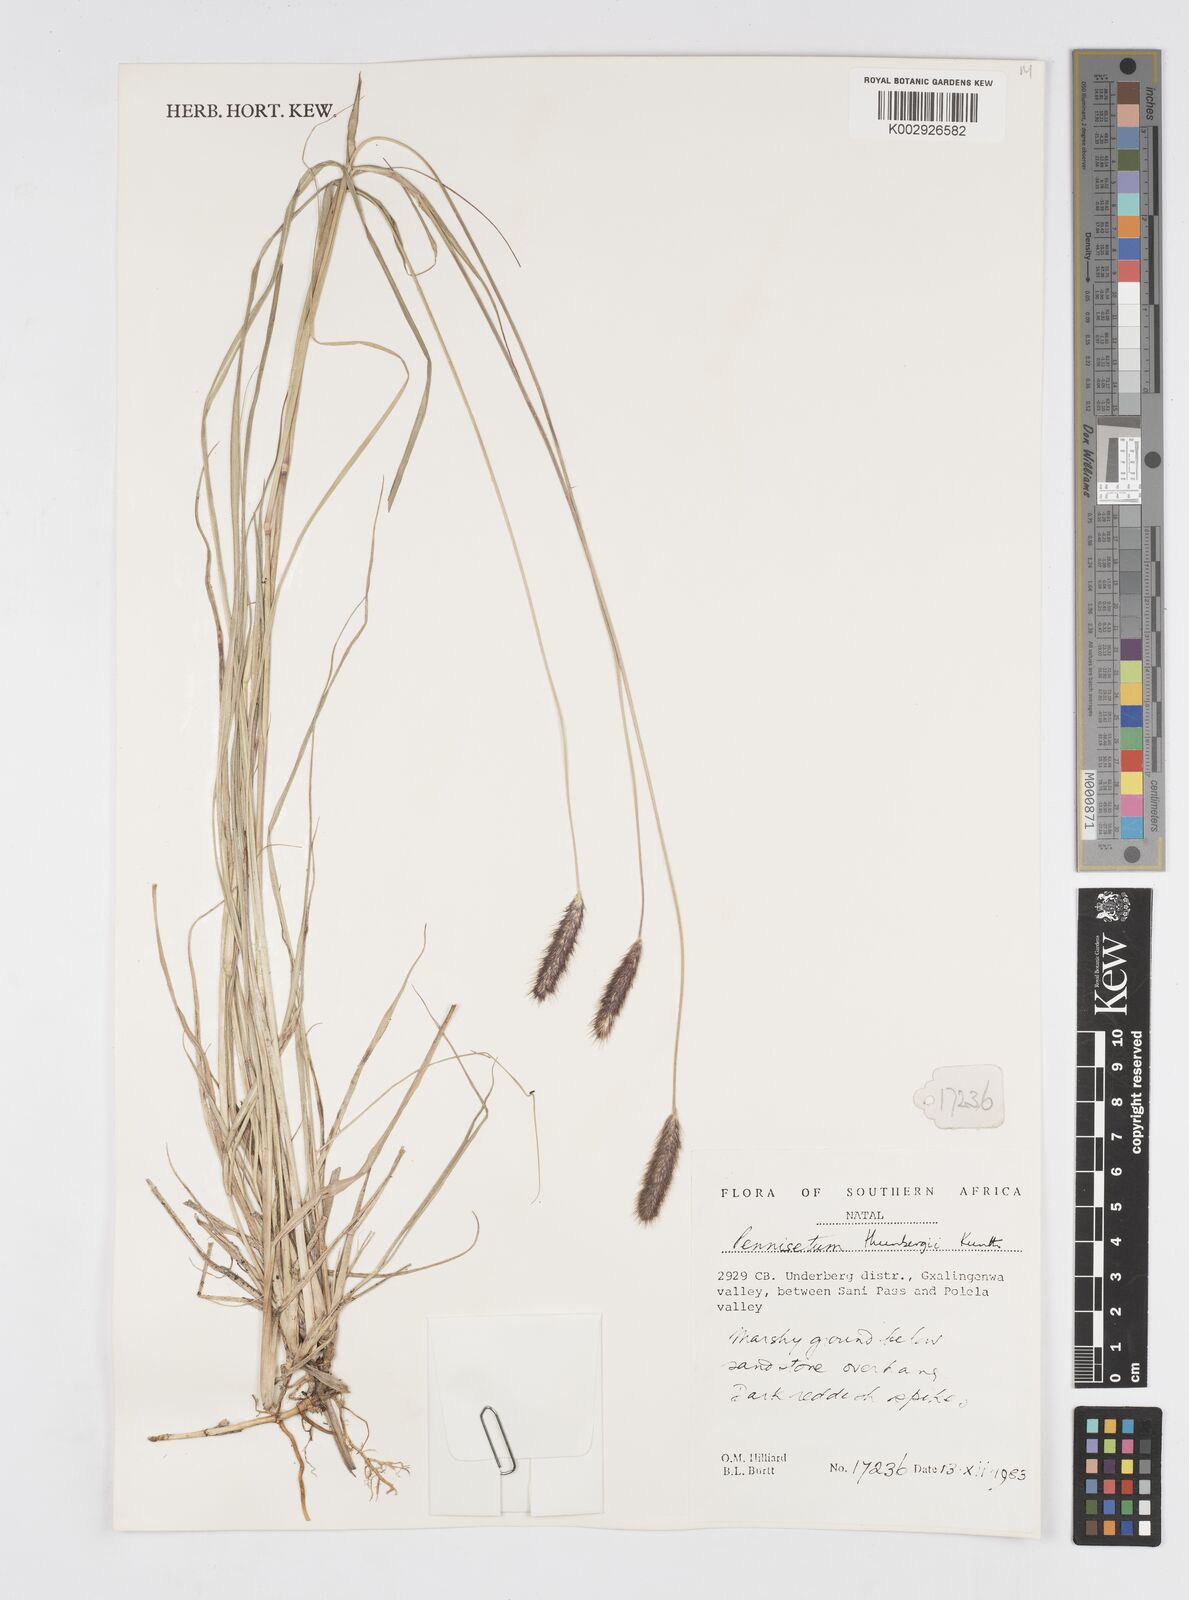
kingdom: Plantae
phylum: Tracheophyta
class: Liliopsida
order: Poales
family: Poaceae
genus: Cenchrus
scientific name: Cenchrus geniculatus
